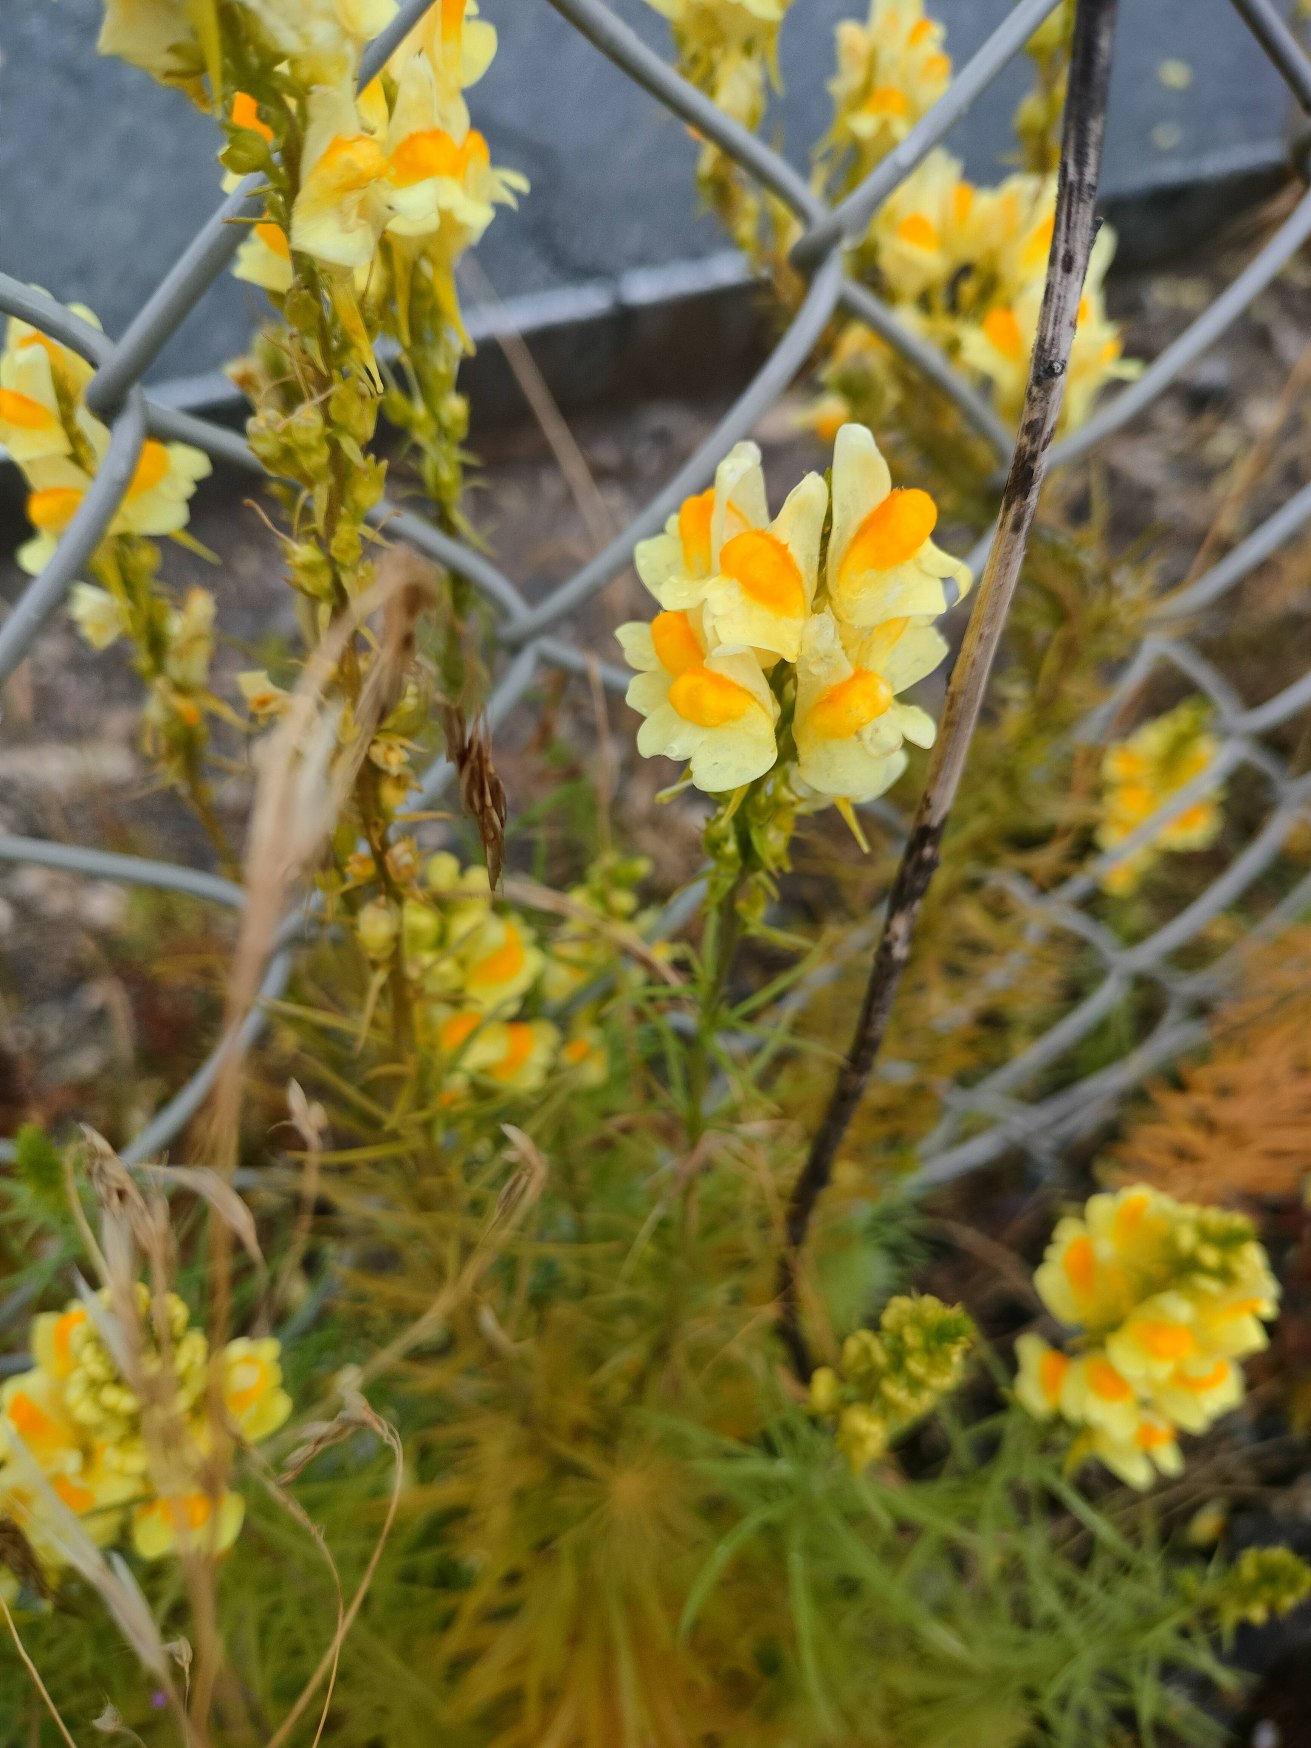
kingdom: Plantae
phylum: Tracheophyta
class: Magnoliopsida
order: Lamiales
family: Plantaginaceae
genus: Linaria
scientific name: Linaria vulgaris
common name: Almindelig torskemund
